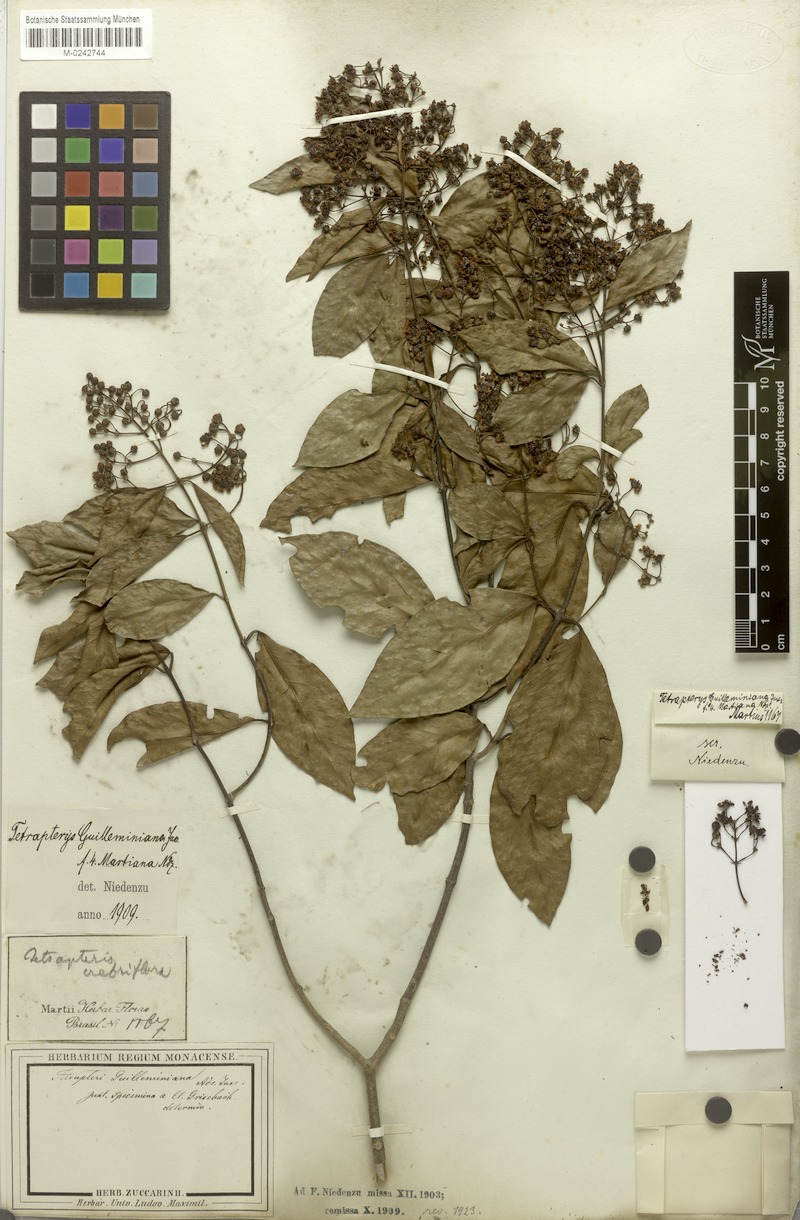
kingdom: Plantae
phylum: Tracheophyta
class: Magnoliopsida
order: Malpighiales
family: Malpighiaceae
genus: Niedenzuella
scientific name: Niedenzuella acutifolia
